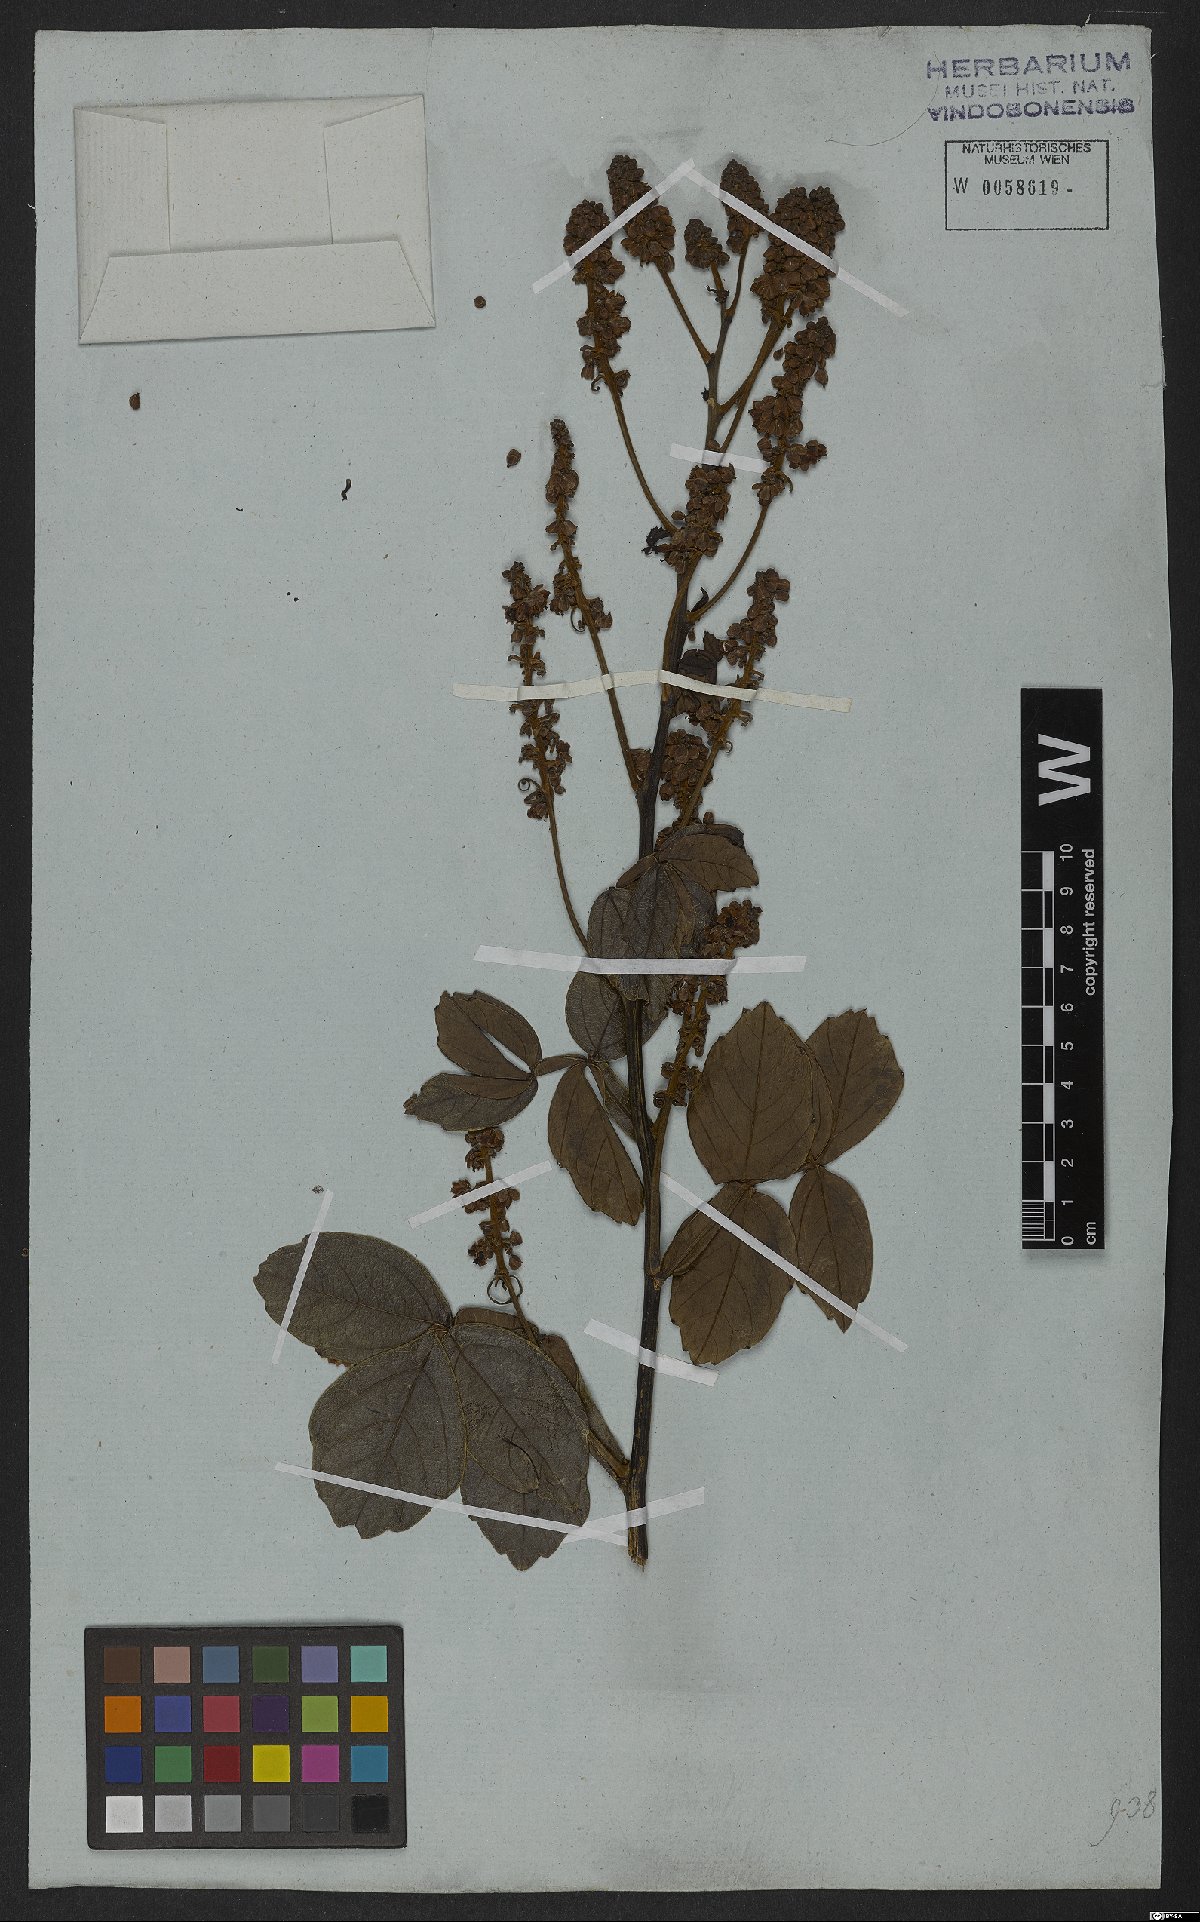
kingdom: Plantae
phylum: Tracheophyta
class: Magnoliopsida
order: Sapindales
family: Sapindaceae
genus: Serjania
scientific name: Serjania erecta
